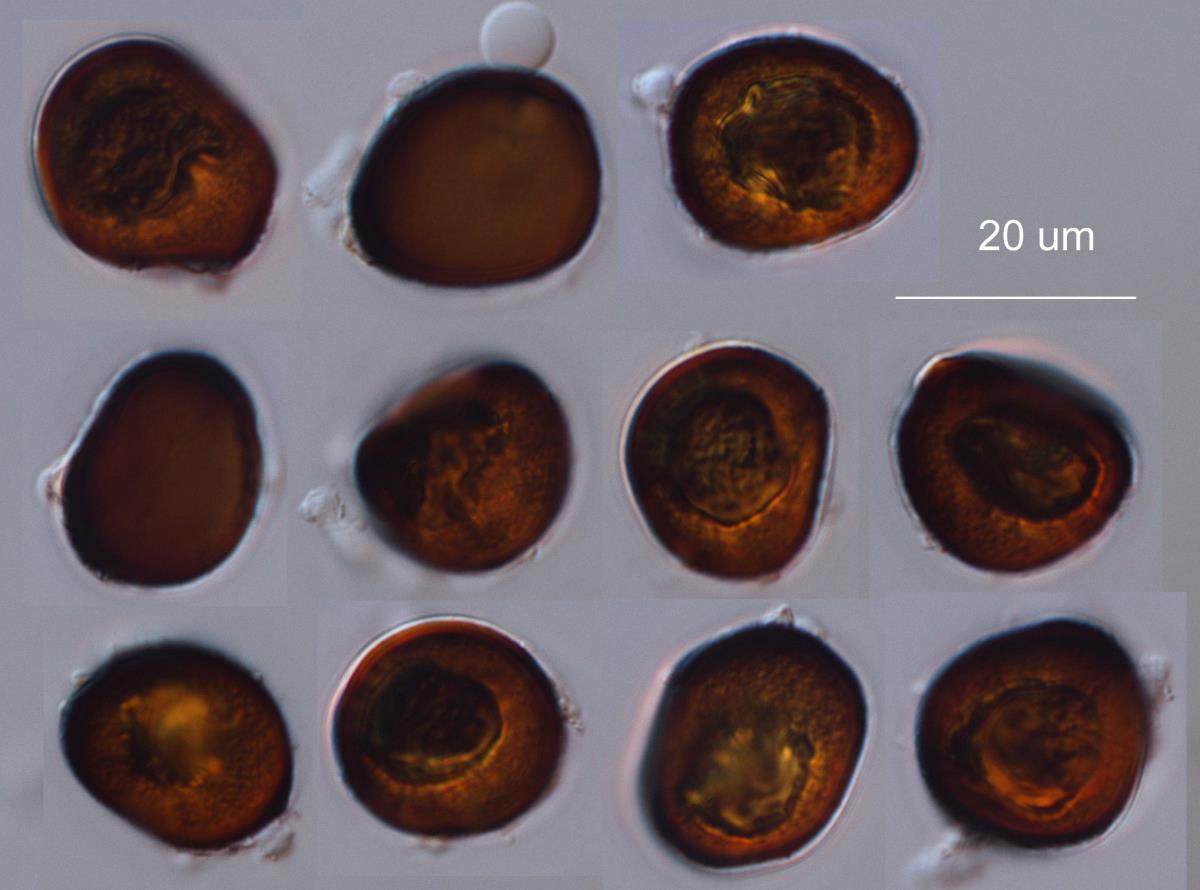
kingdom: Fungi
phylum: Basidiomycota
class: Ustilaginomycetes
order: Ustilaginales
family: Anthracoideaceae
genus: Cintractia
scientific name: Cintractia oreoboli
